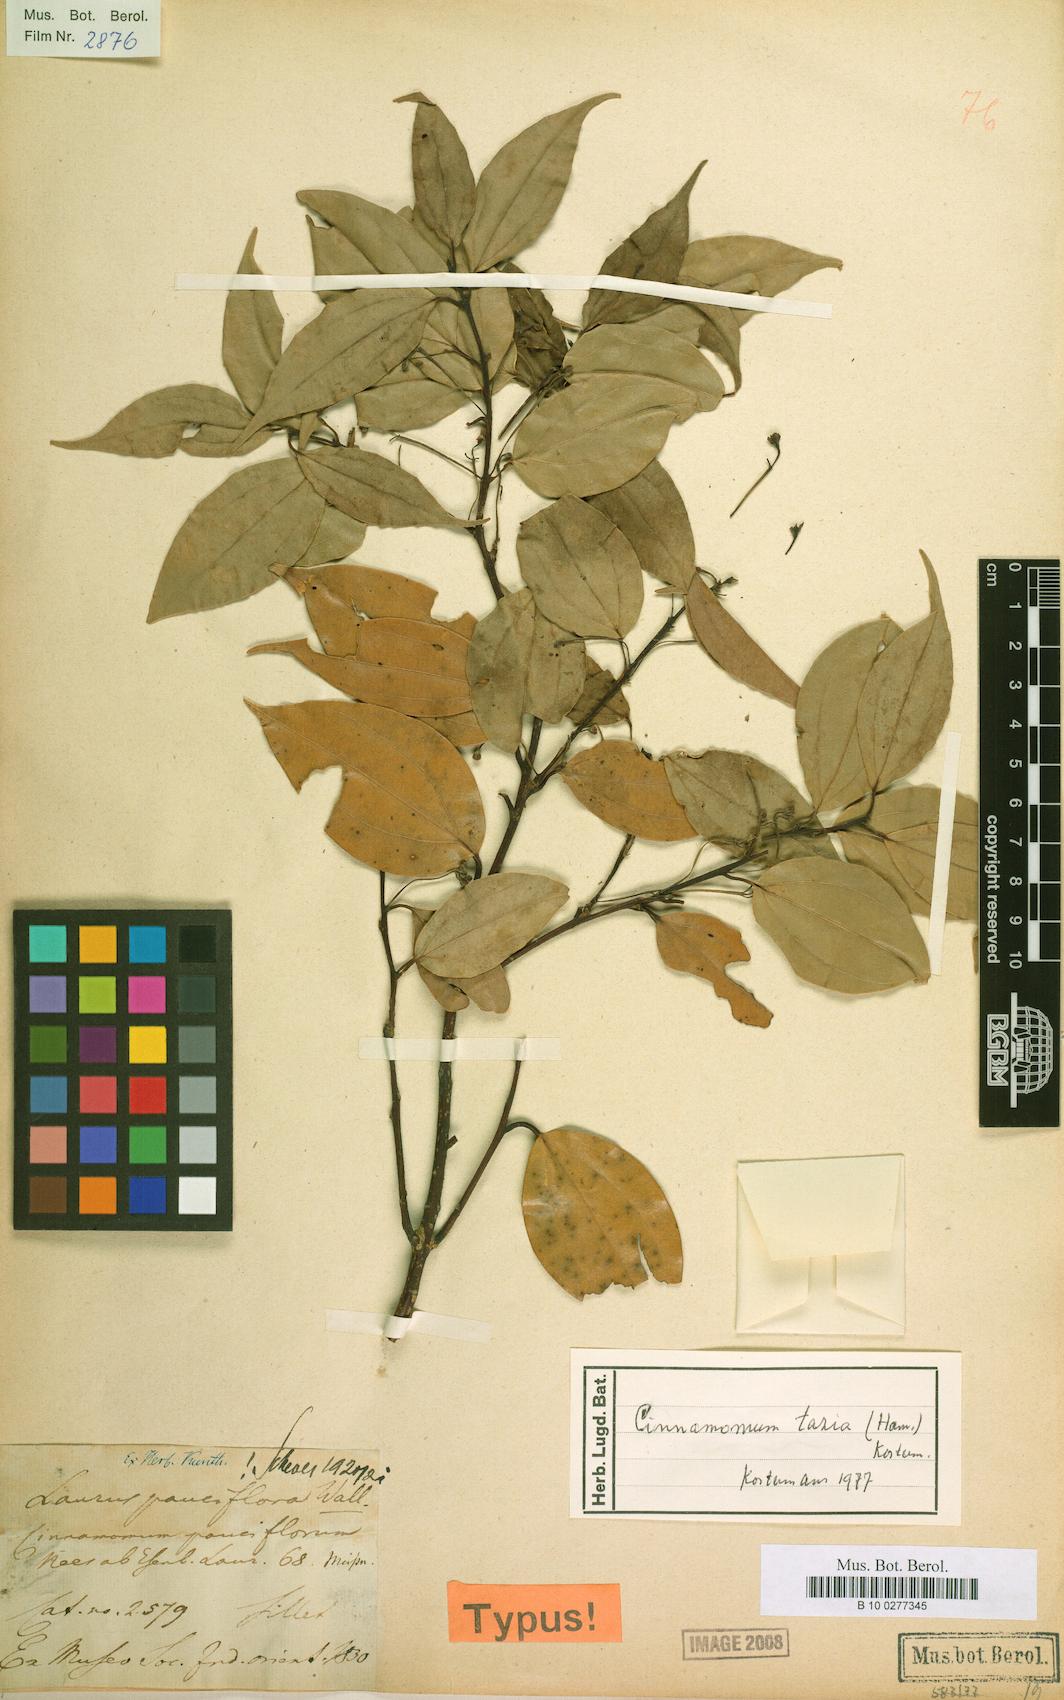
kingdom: Plantae
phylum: Tracheophyta
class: Magnoliopsida
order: Laurales
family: Lauraceae
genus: Cinnamomum
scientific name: Cinnamomum tazia
